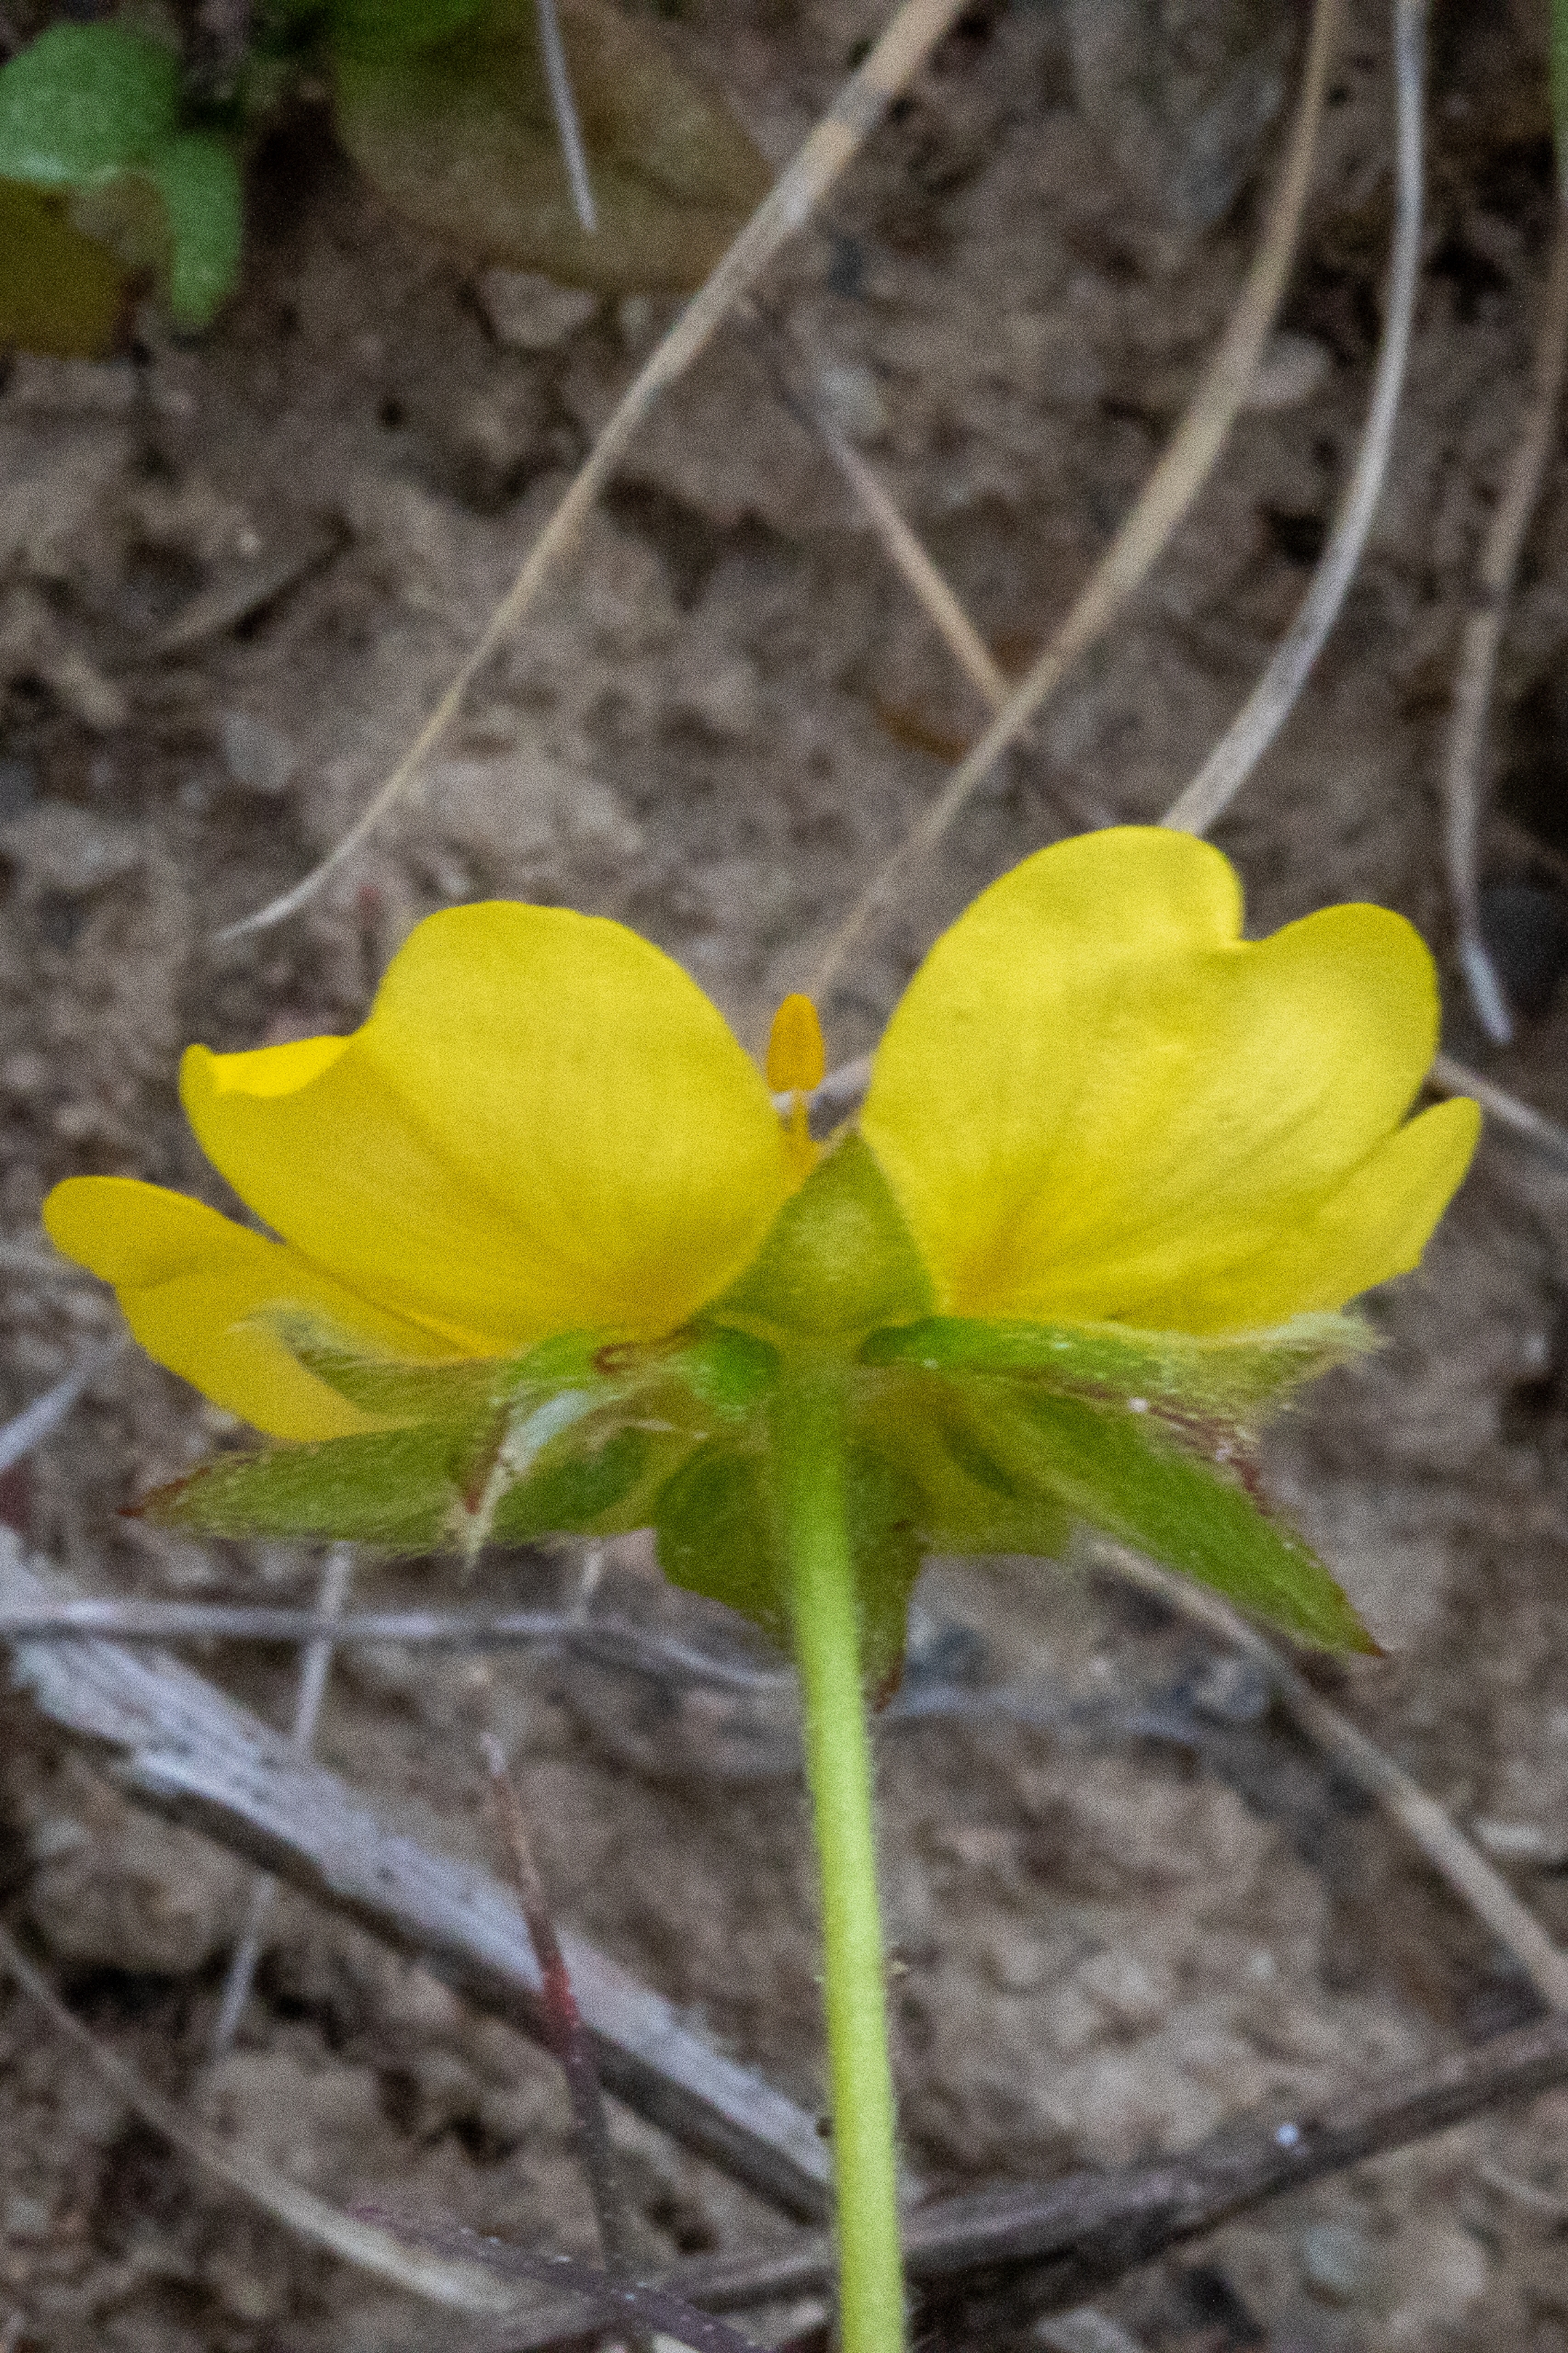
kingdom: Plantae
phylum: Tracheophyta
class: Magnoliopsida
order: Rosales
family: Rosaceae
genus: Potentilla
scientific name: Potentilla reptans
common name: Krybende potentil
